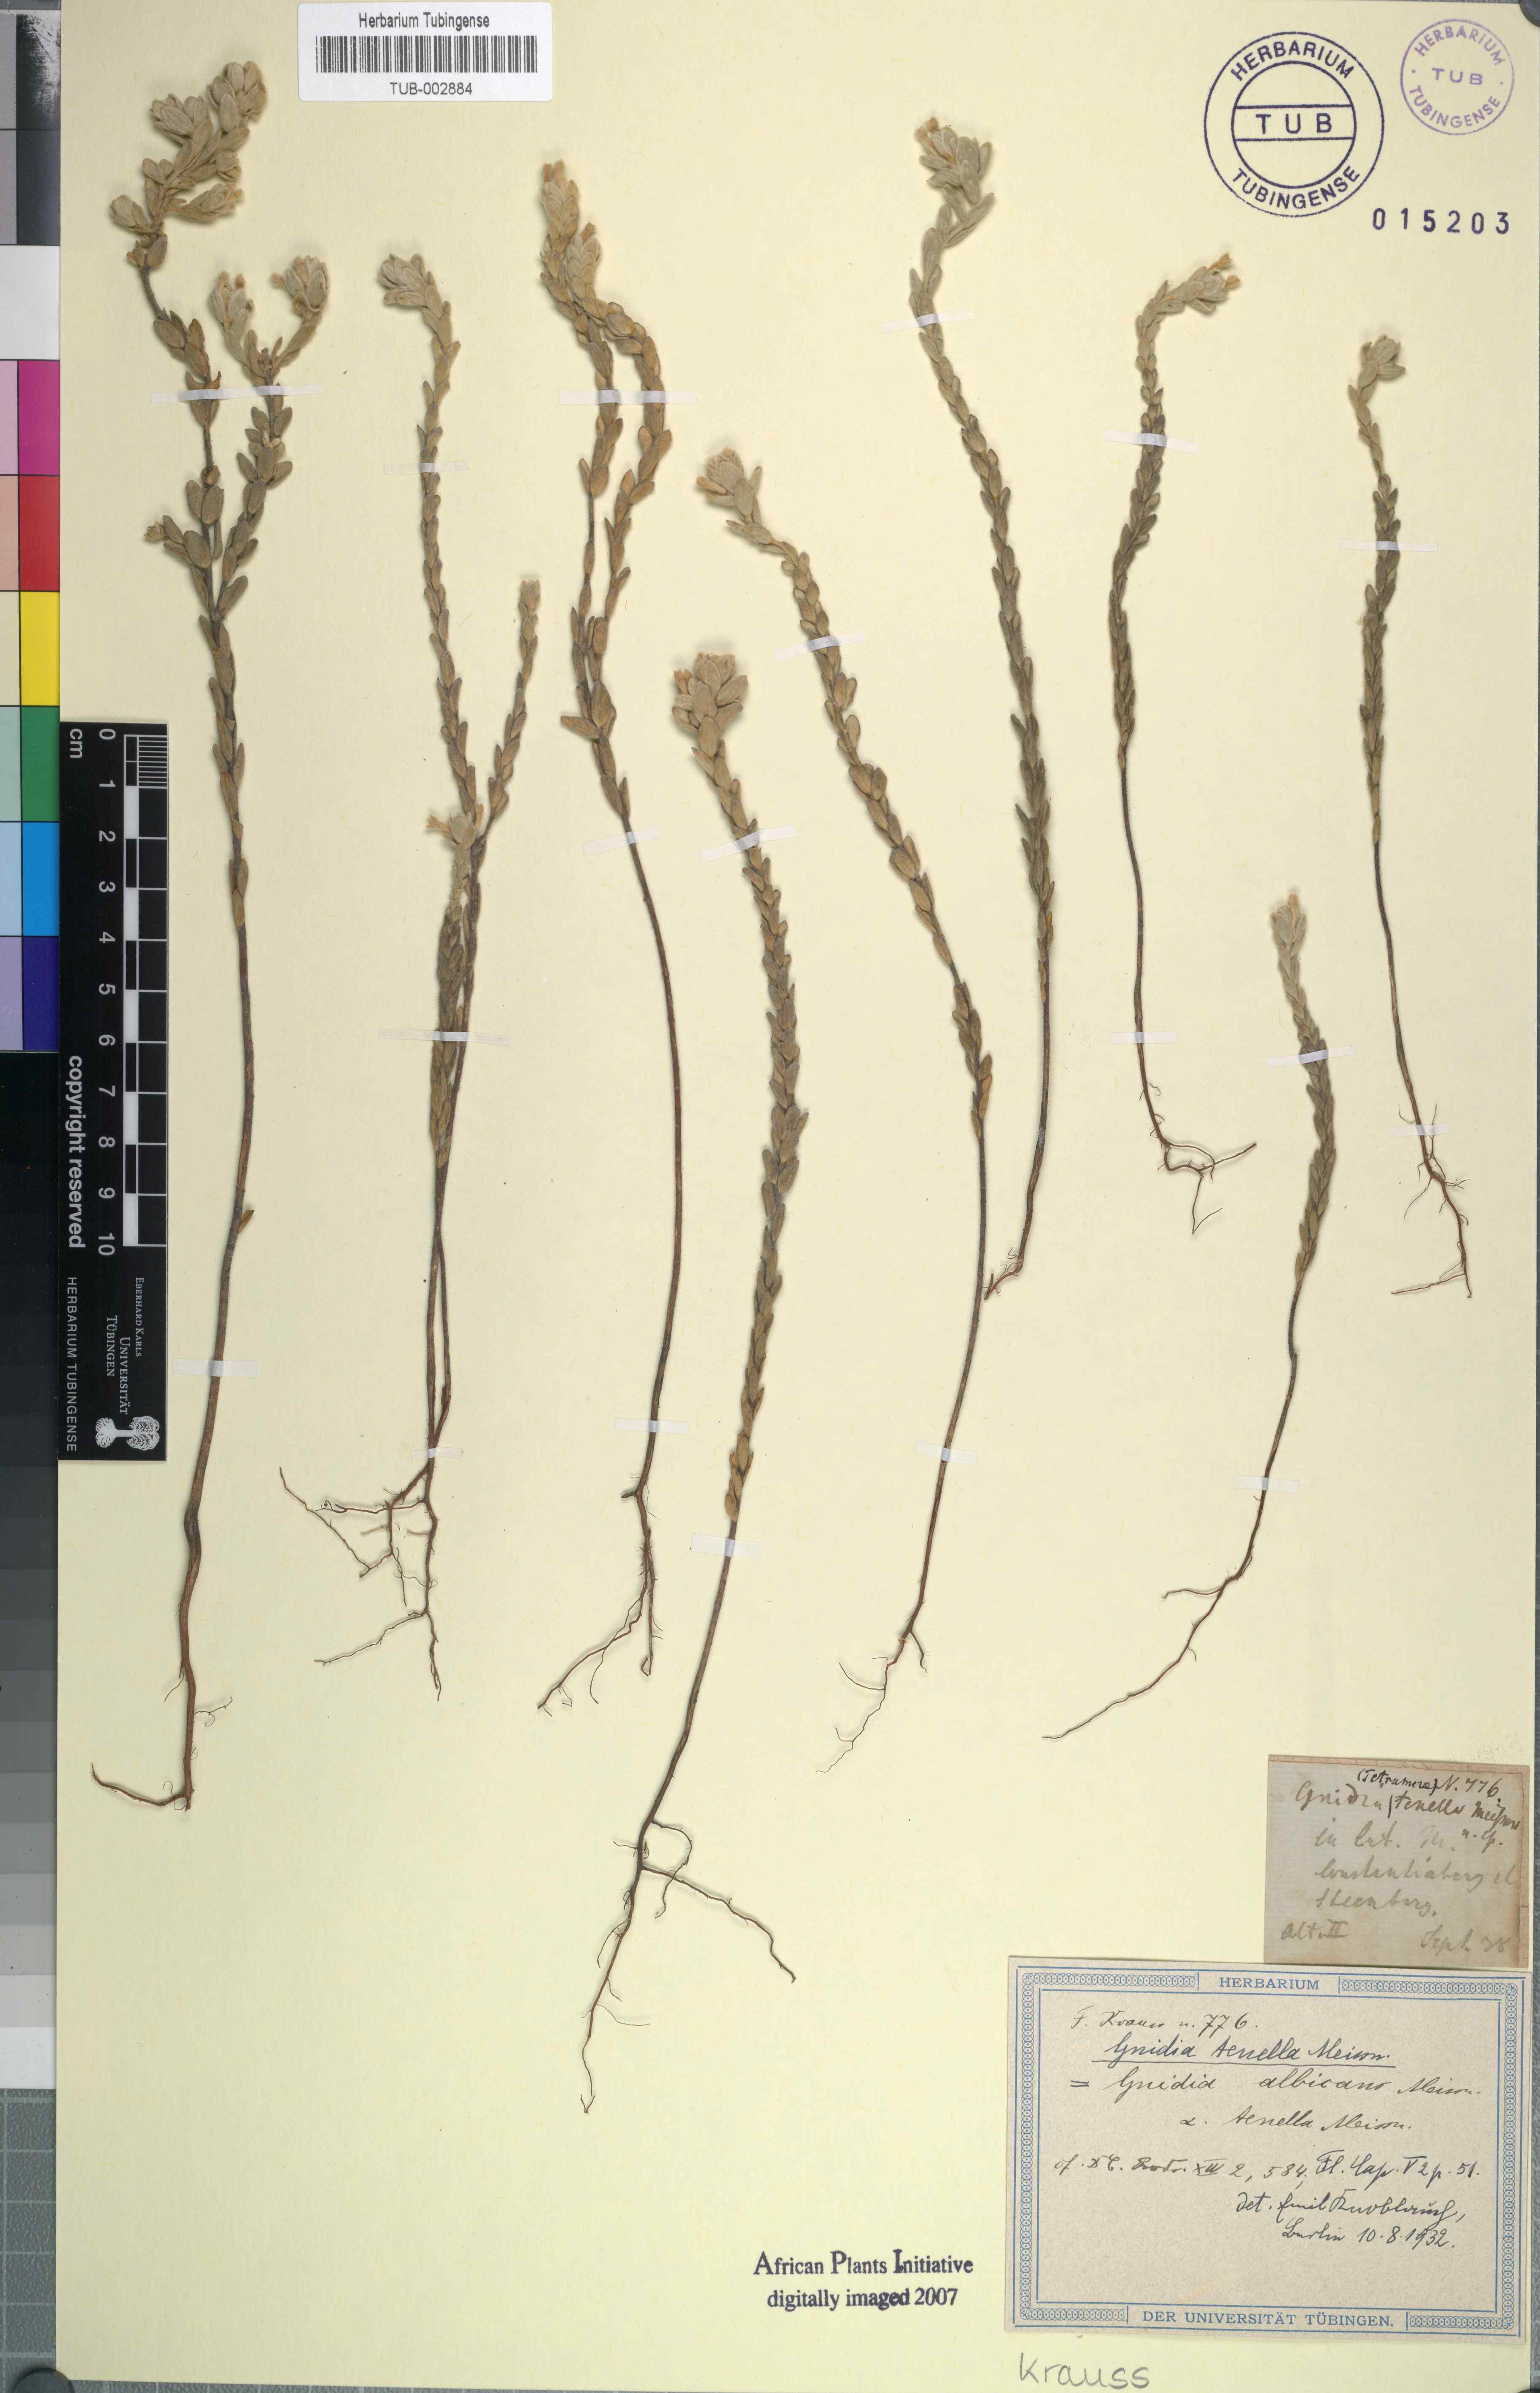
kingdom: Plantae
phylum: Tracheophyta
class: Magnoliopsida
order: Malvales
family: Thymelaeaceae
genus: Gnidia
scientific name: Gnidia tenella
